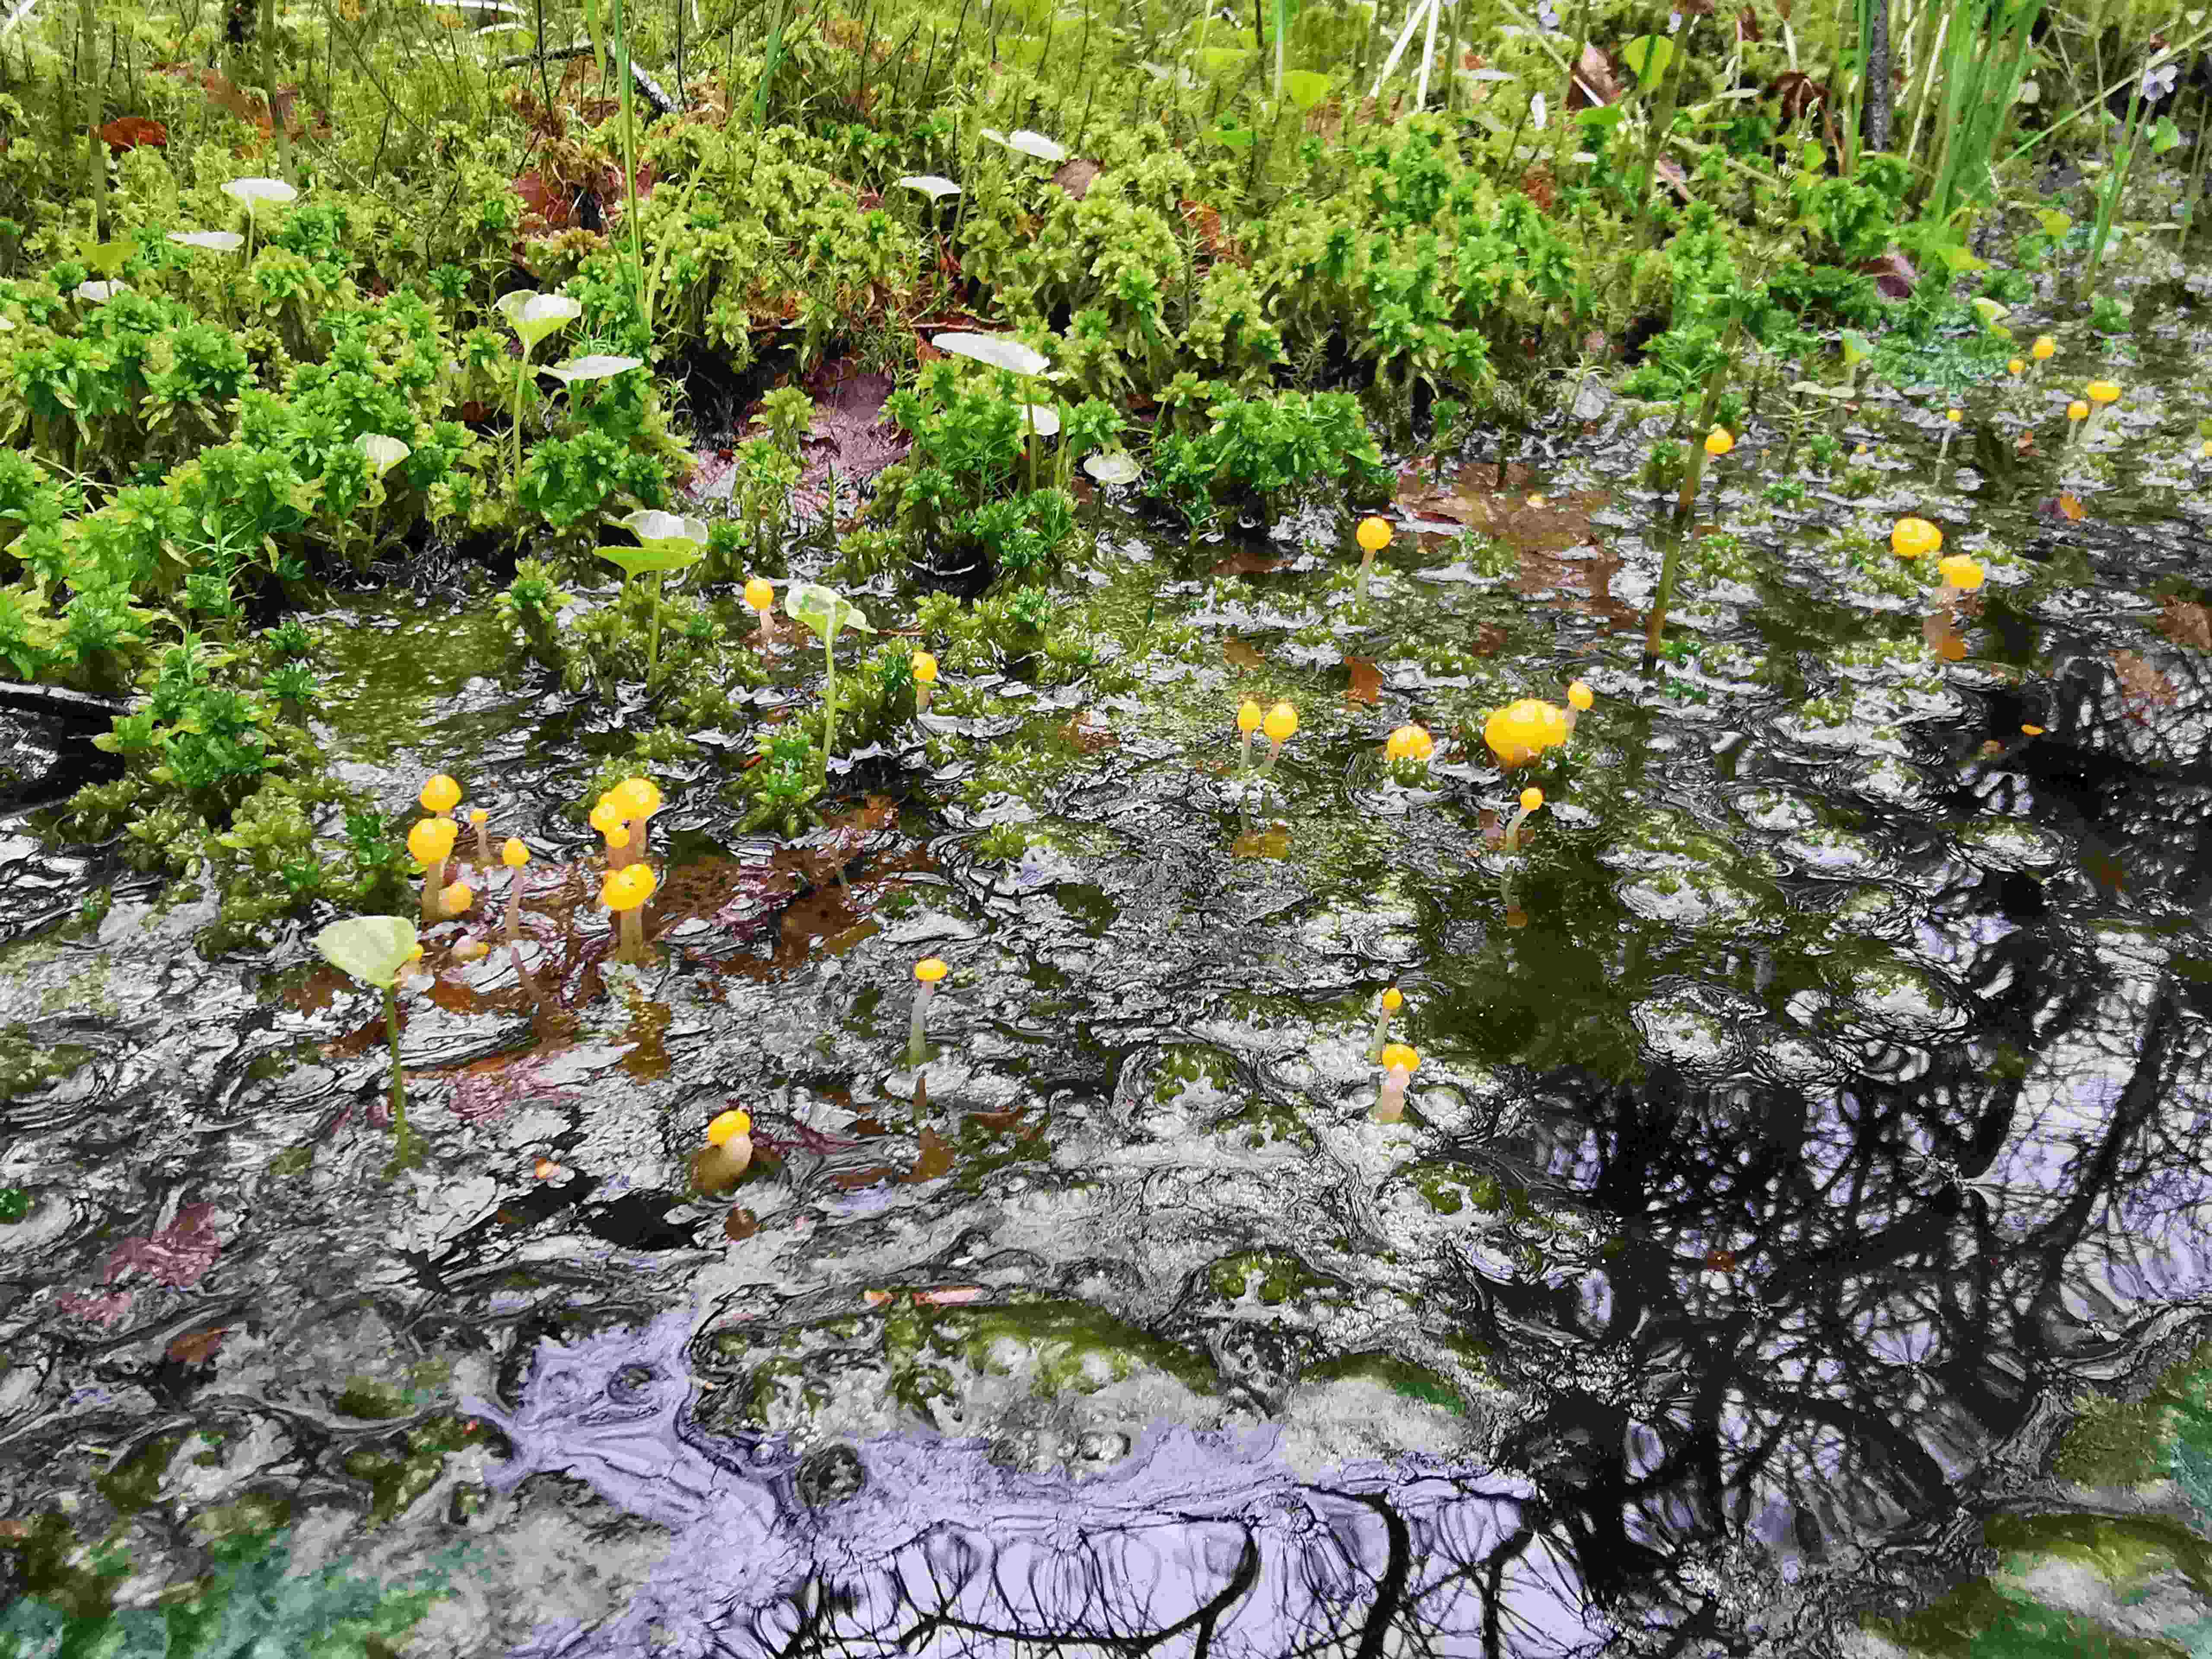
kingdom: Fungi
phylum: Ascomycota
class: Leotiomycetes
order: Helotiales
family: Cenangiaceae
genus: Mitrula
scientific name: Mitrula paludosa
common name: gul nøkketunge
